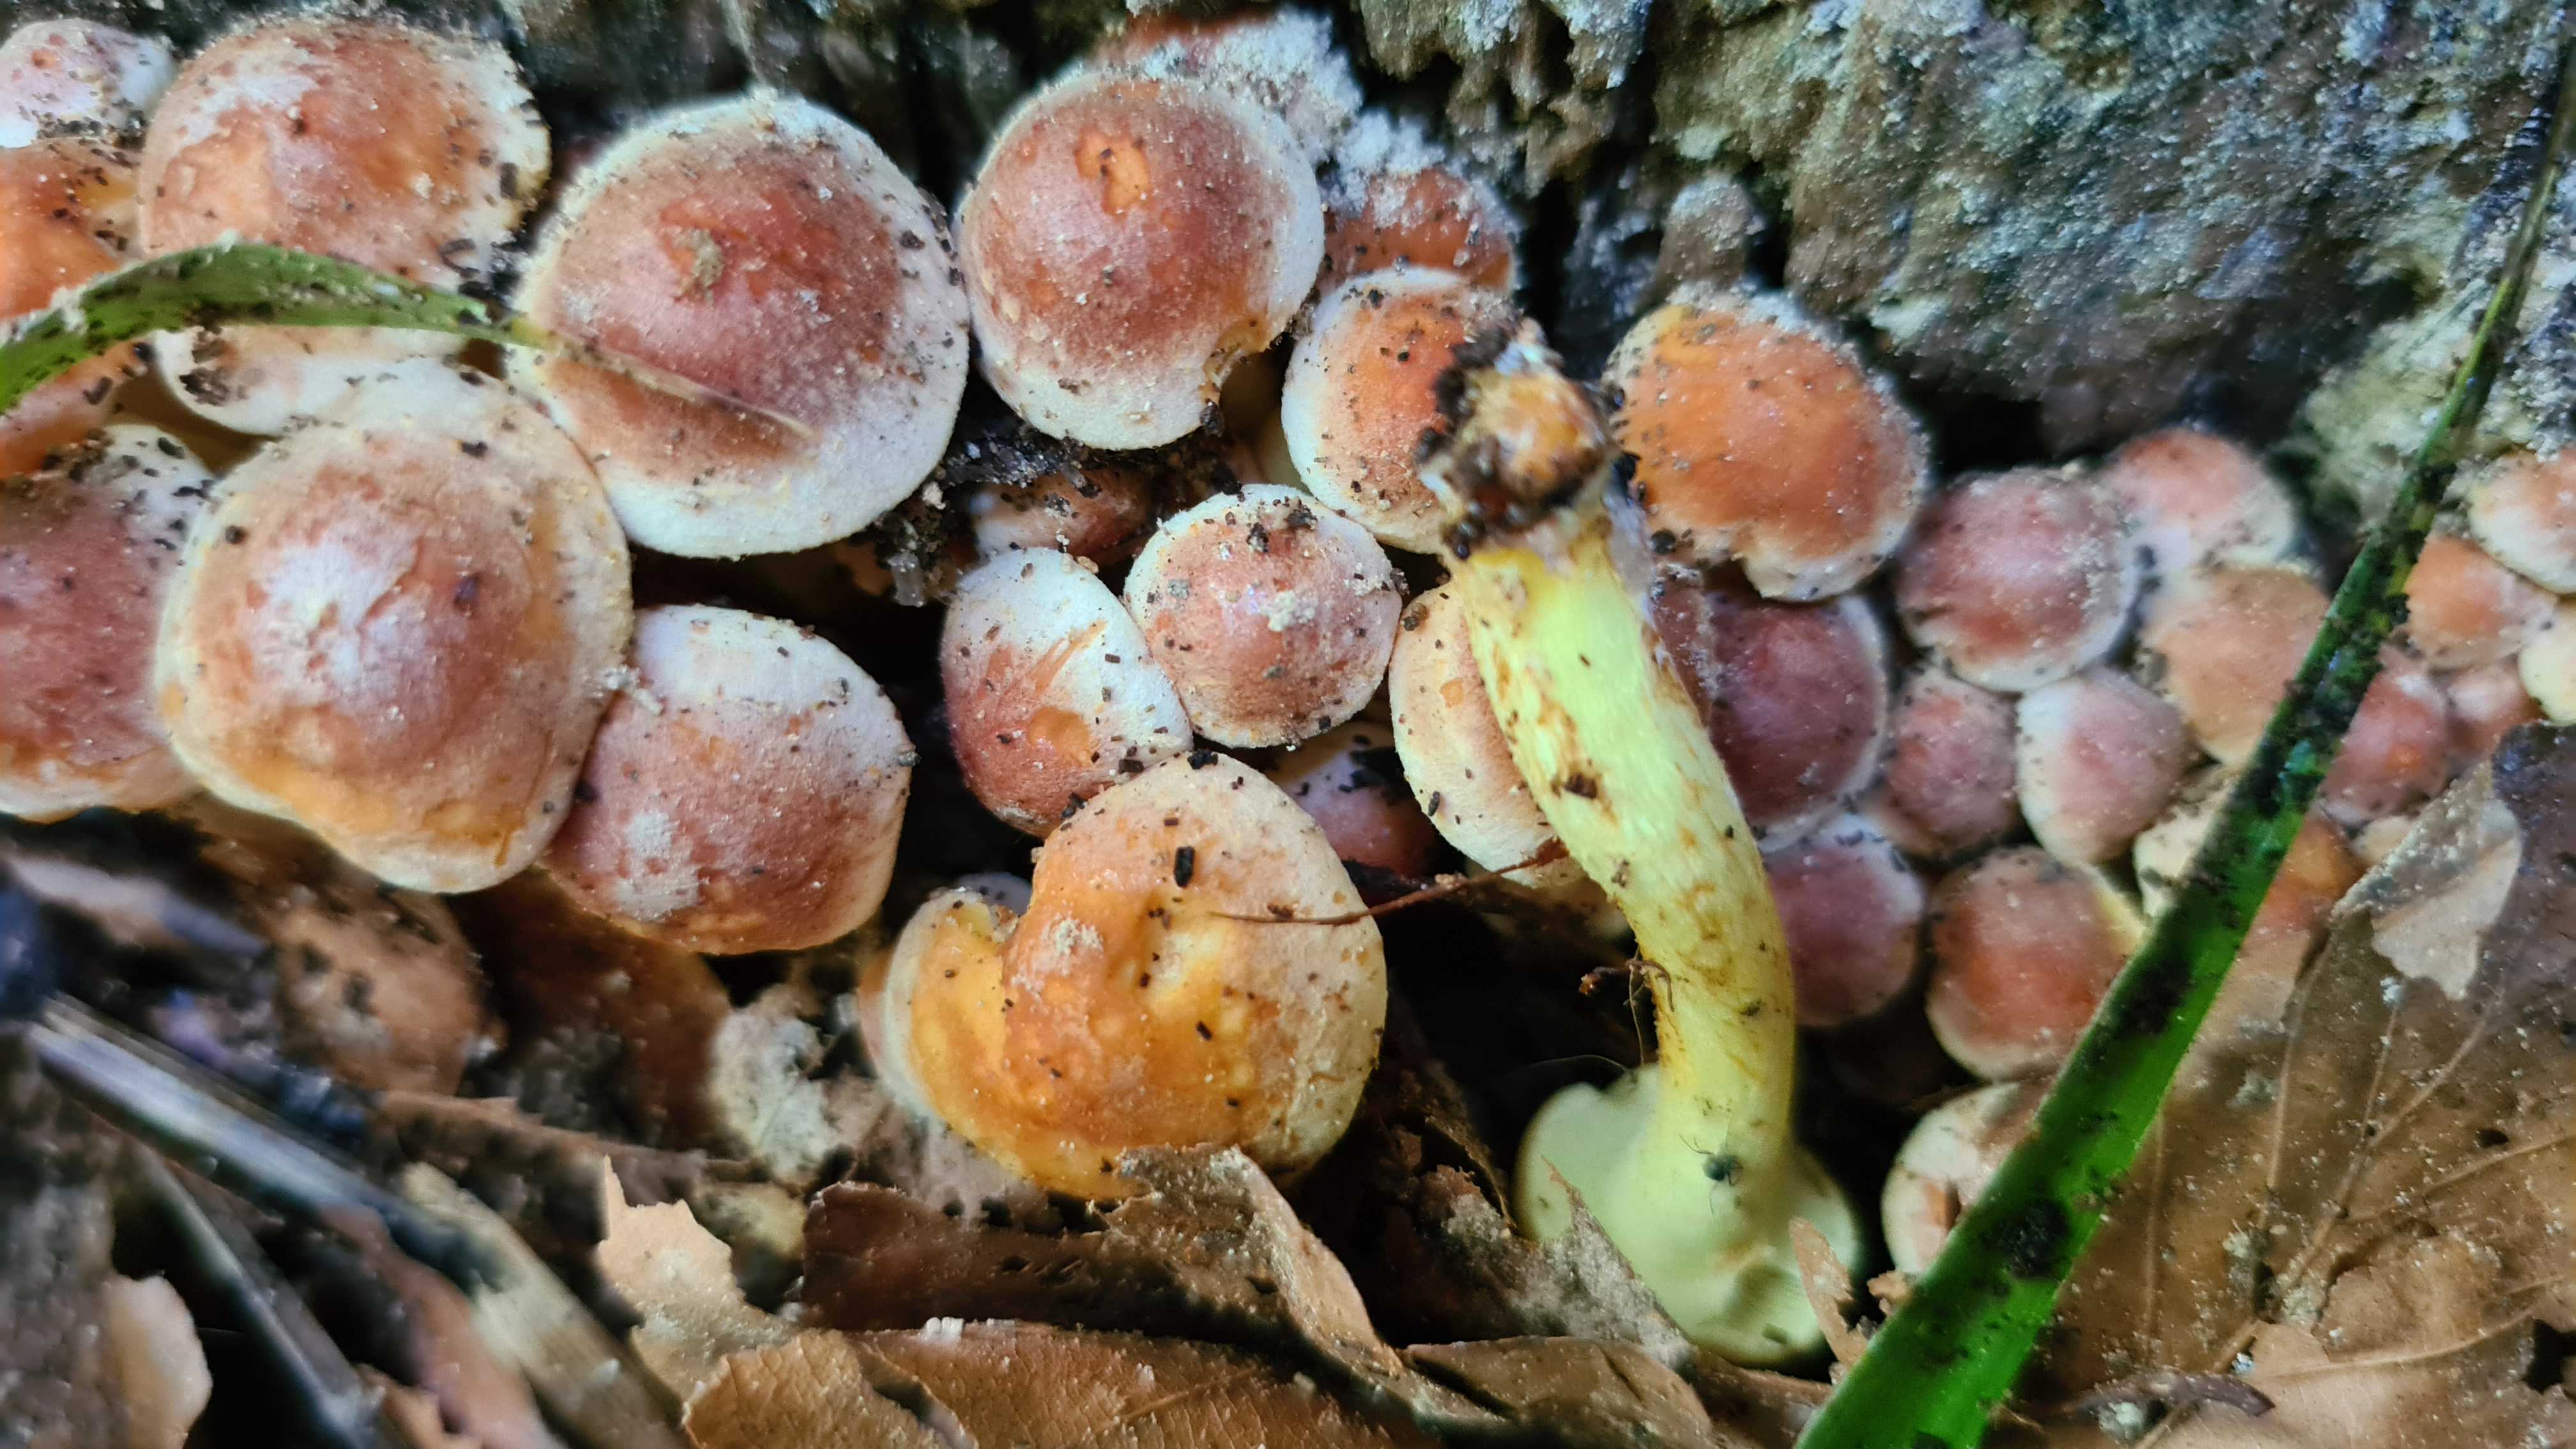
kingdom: Fungi
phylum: Basidiomycota
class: Agaricomycetes
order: Agaricales
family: Strophariaceae
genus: Hypholoma
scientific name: Hypholoma fasciculare
